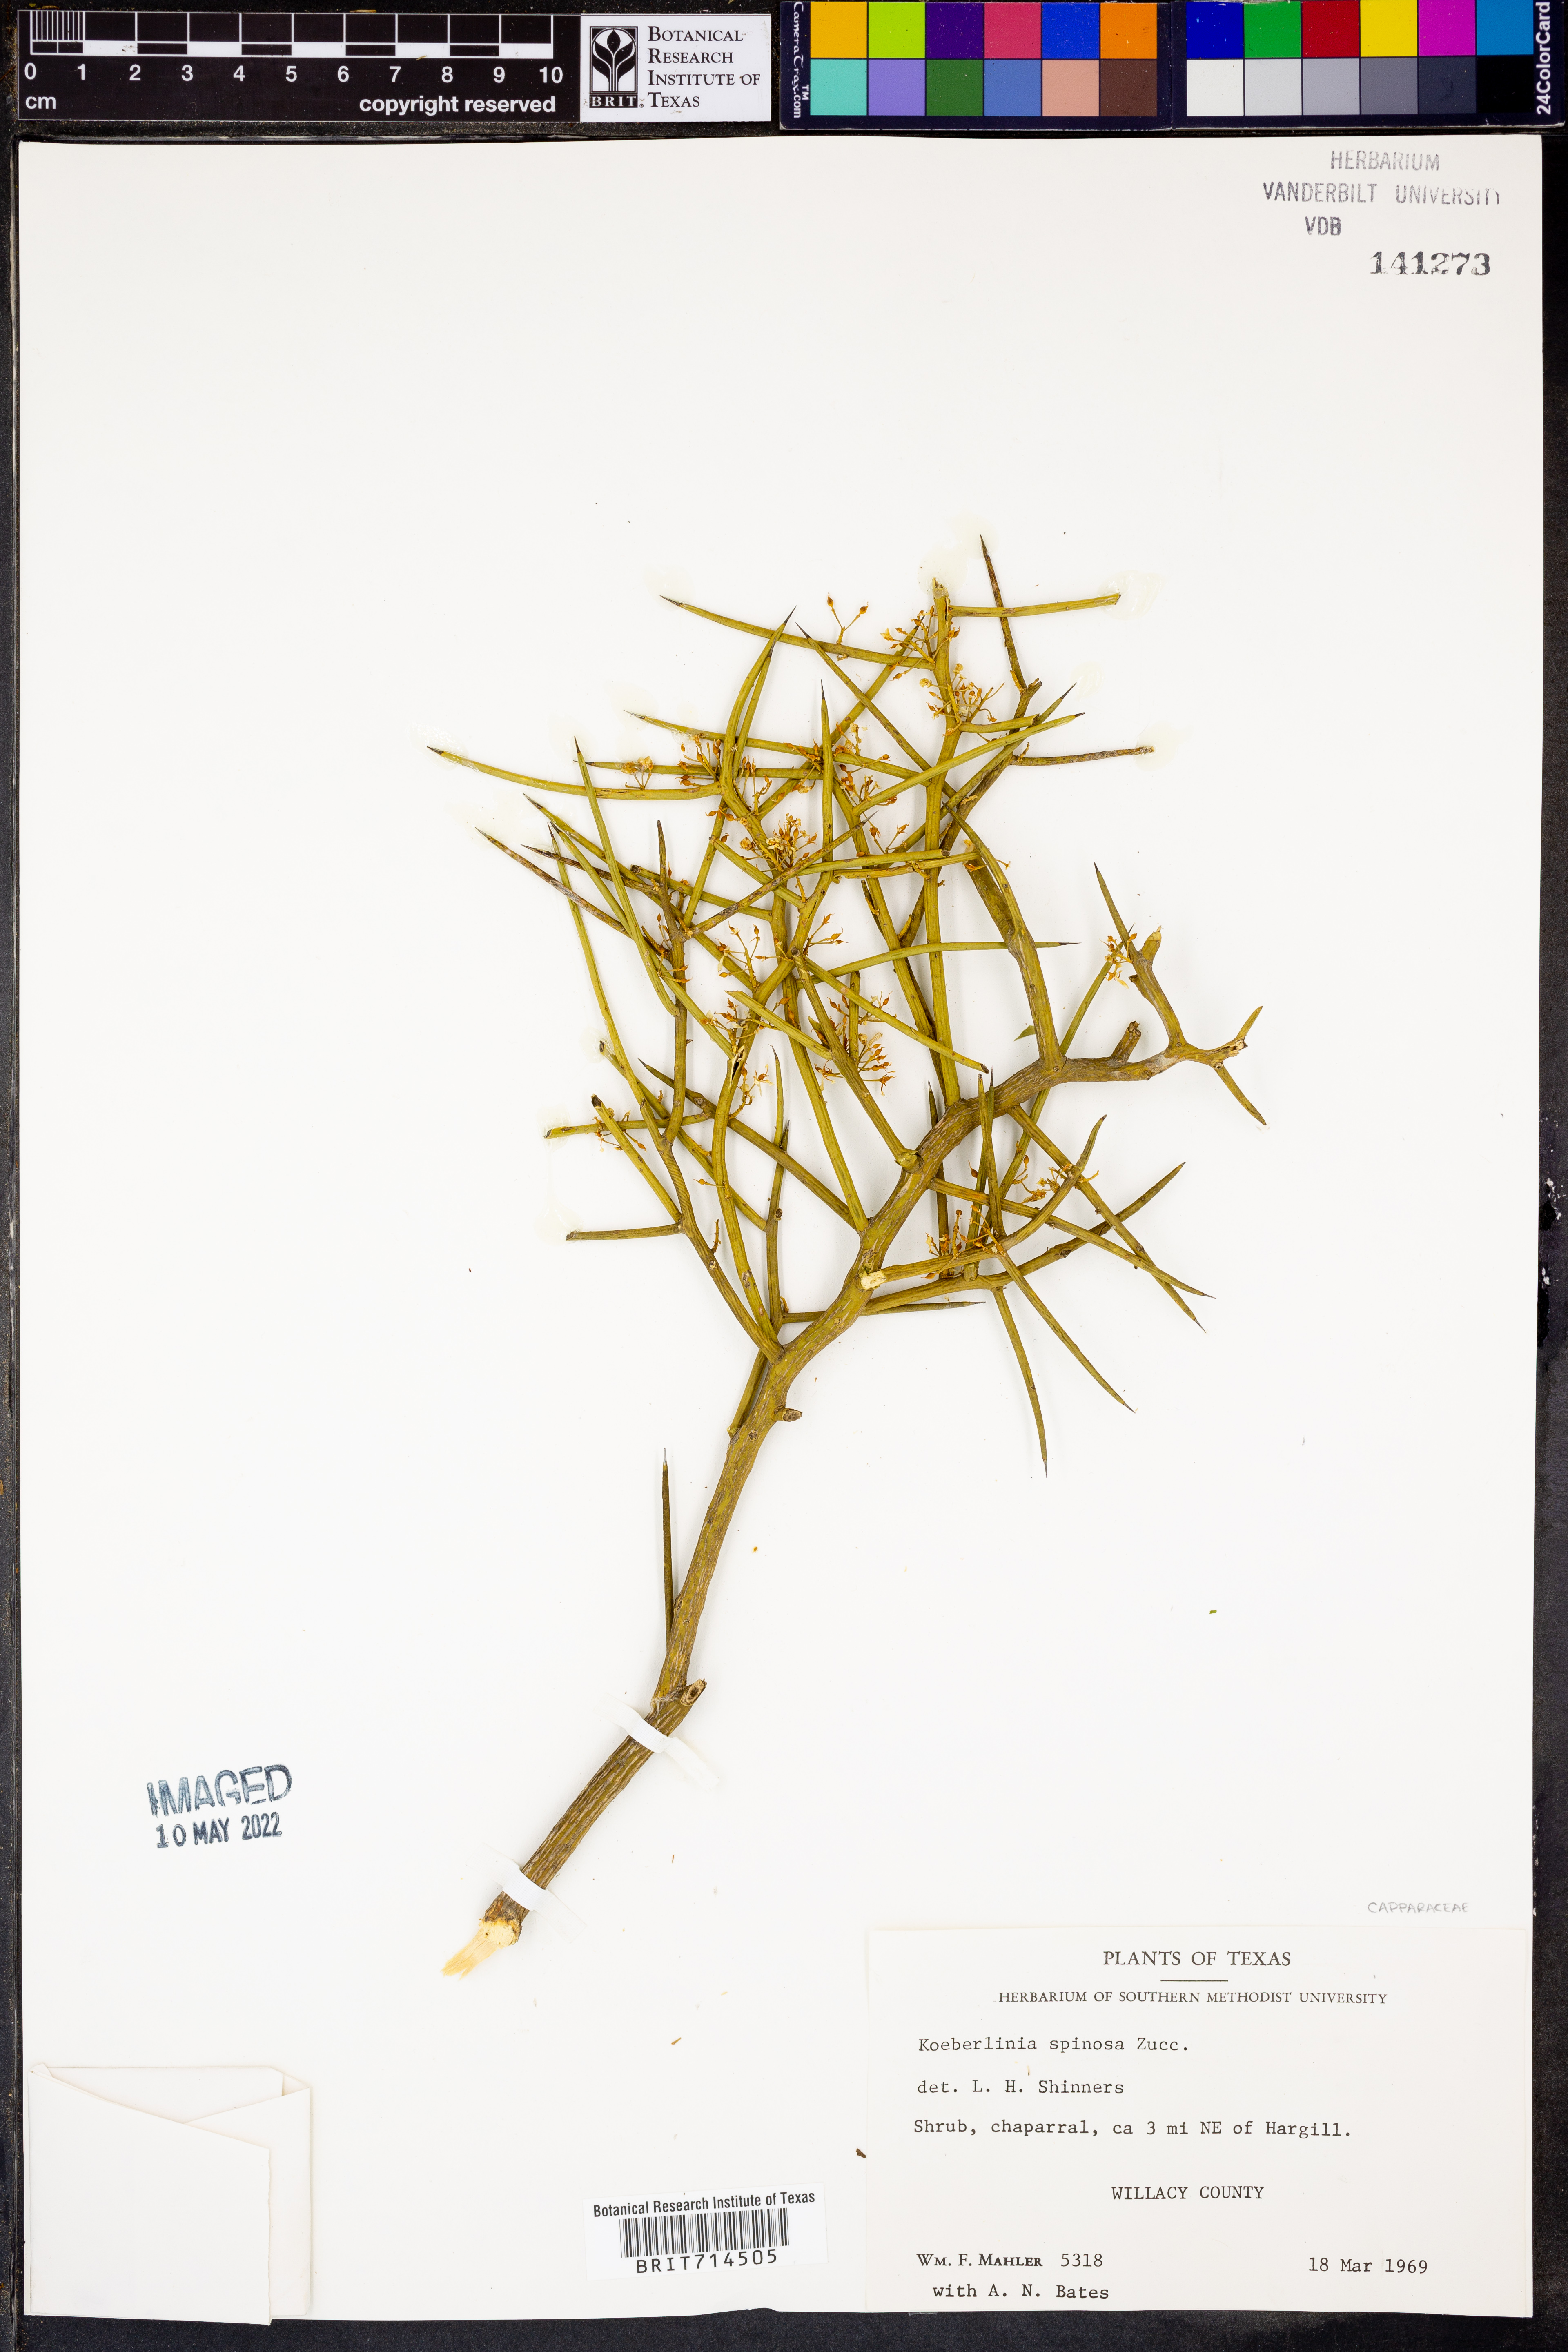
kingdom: Plantae
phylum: Tracheophyta
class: Magnoliopsida
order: Brassicales
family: Koeberliniaceae
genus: Koeberlinia
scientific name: Koeberlinia spinosa
